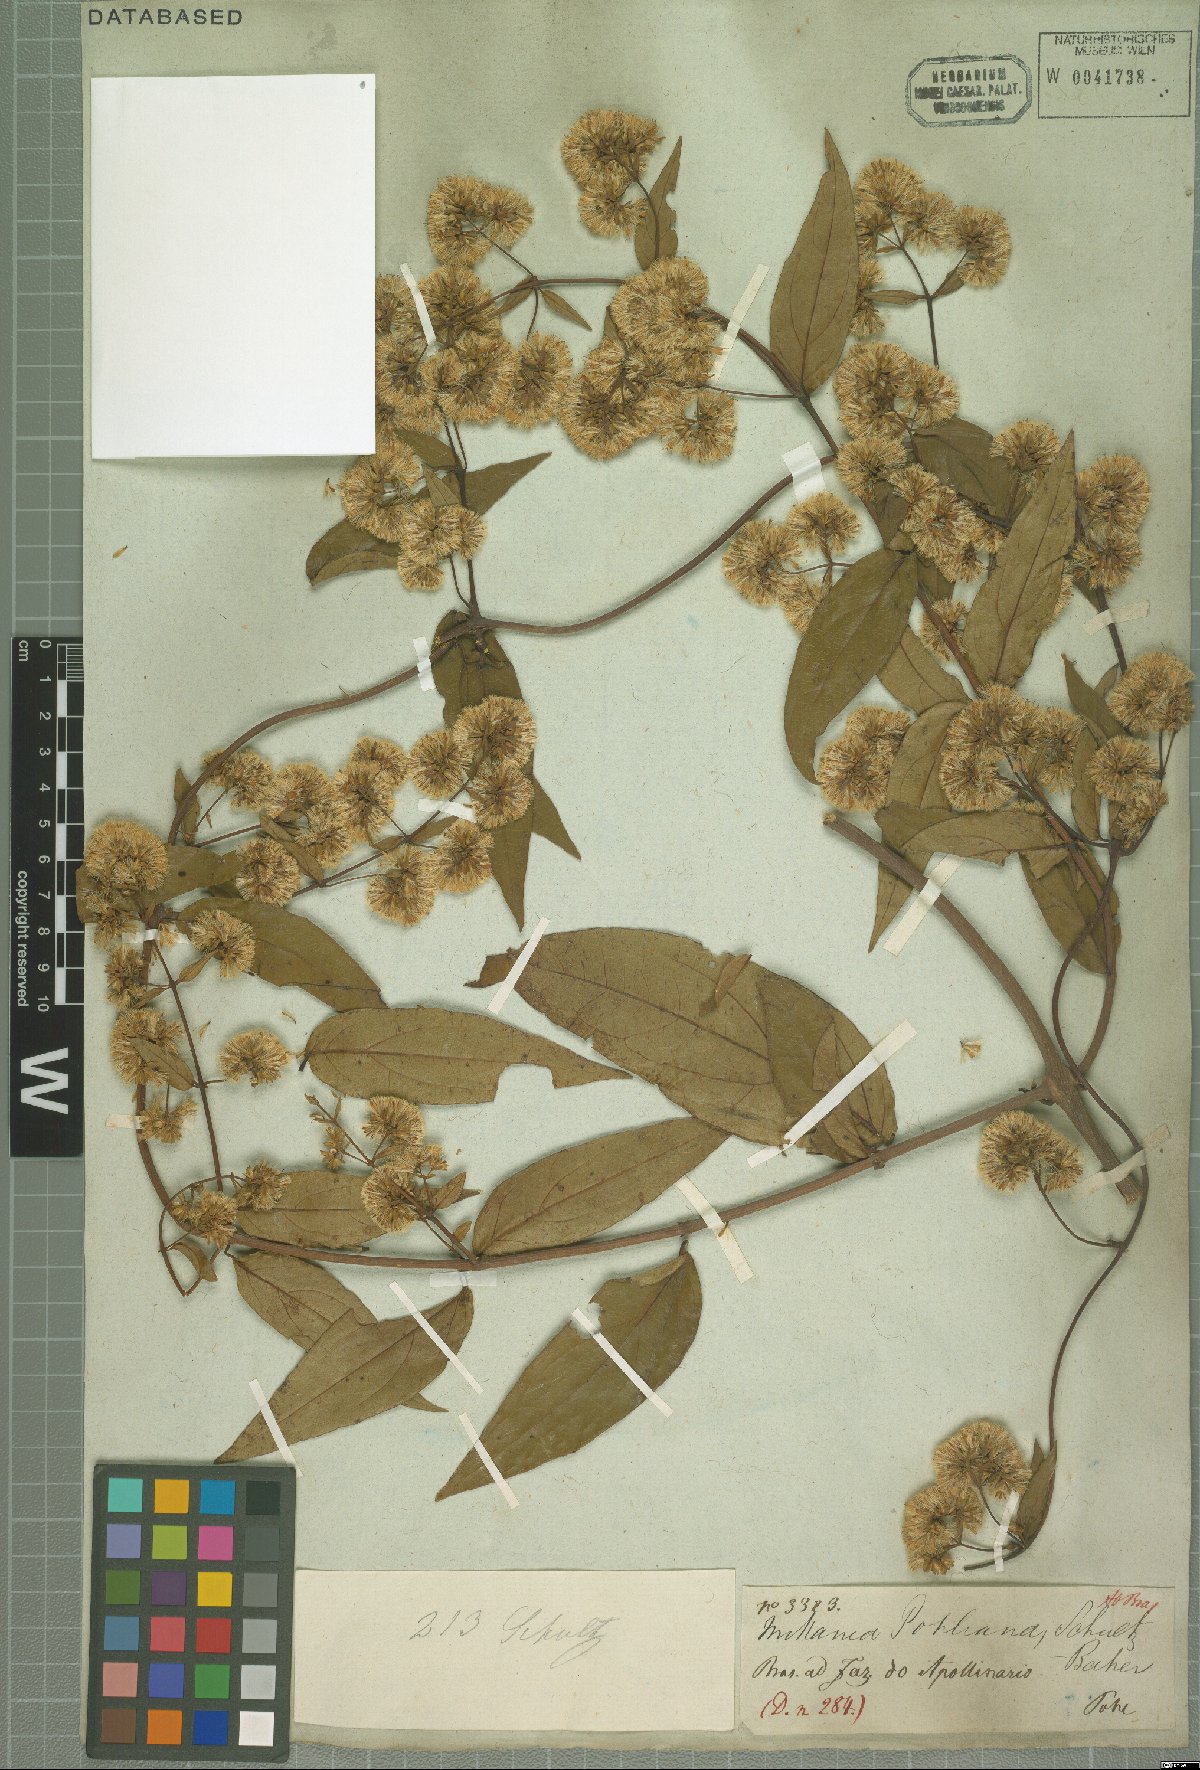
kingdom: Plantae
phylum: Tracheophyta
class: Magnoliopsida
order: Asterales
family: Asteraceae
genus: Mikania
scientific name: Mikania pohliana
